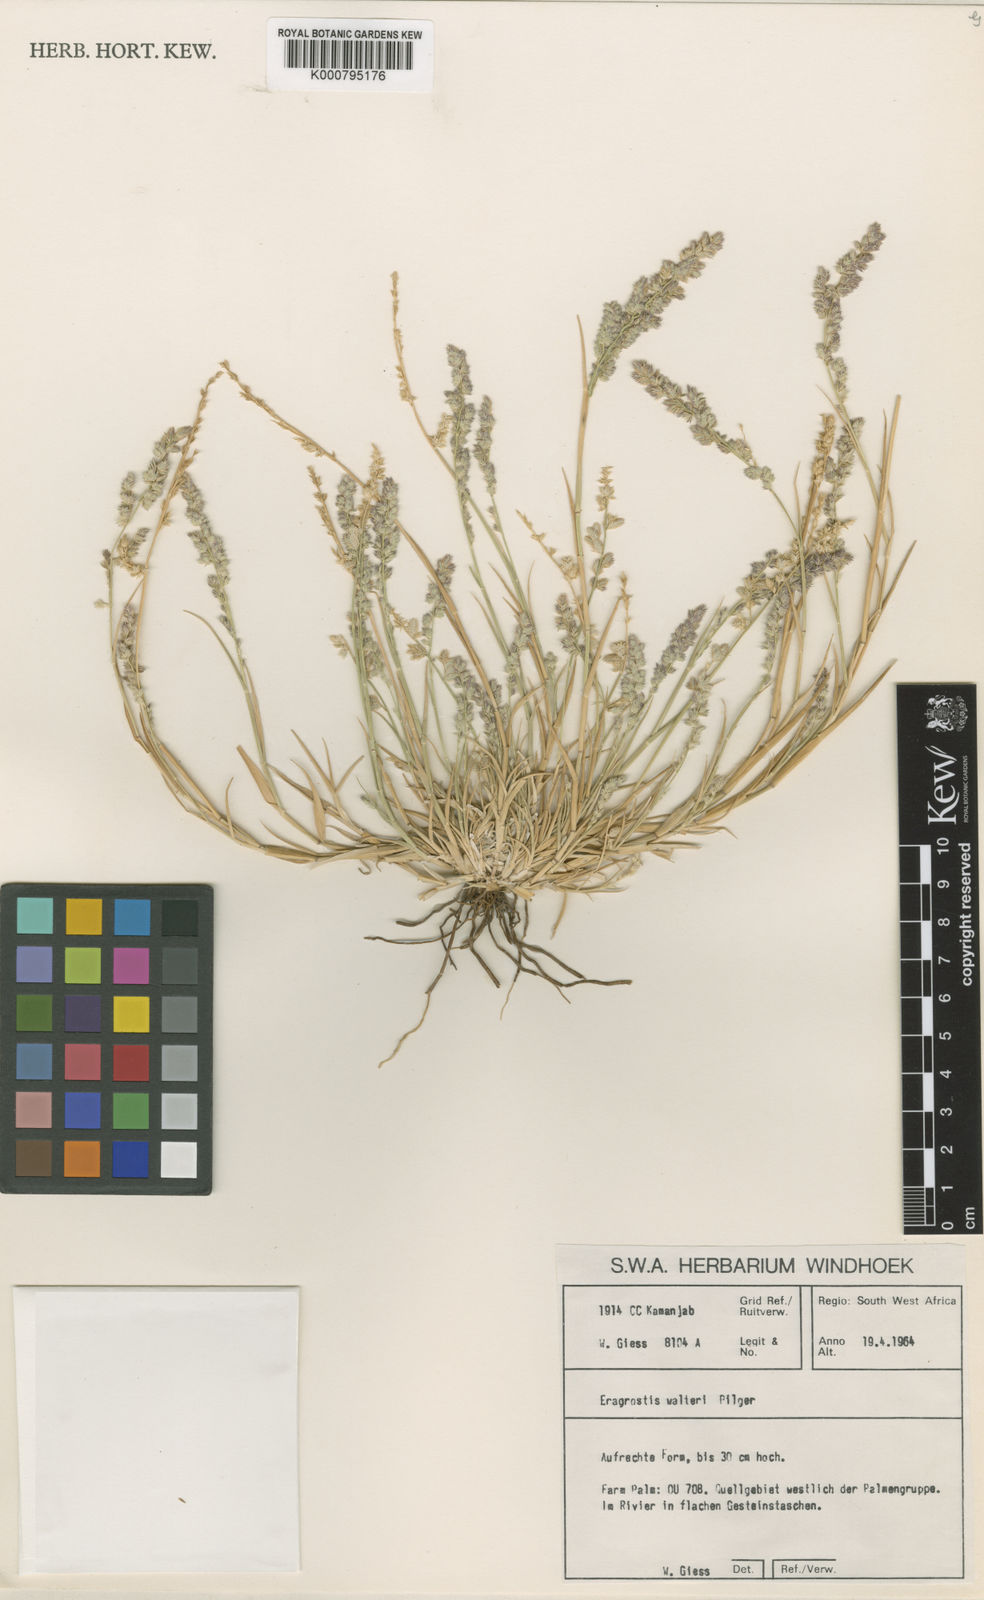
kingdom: Plantae
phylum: Tracheophyta
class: Liliopsida
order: Poales
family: Poaceae
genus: Pratochloa
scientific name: Pratochloa walteri
